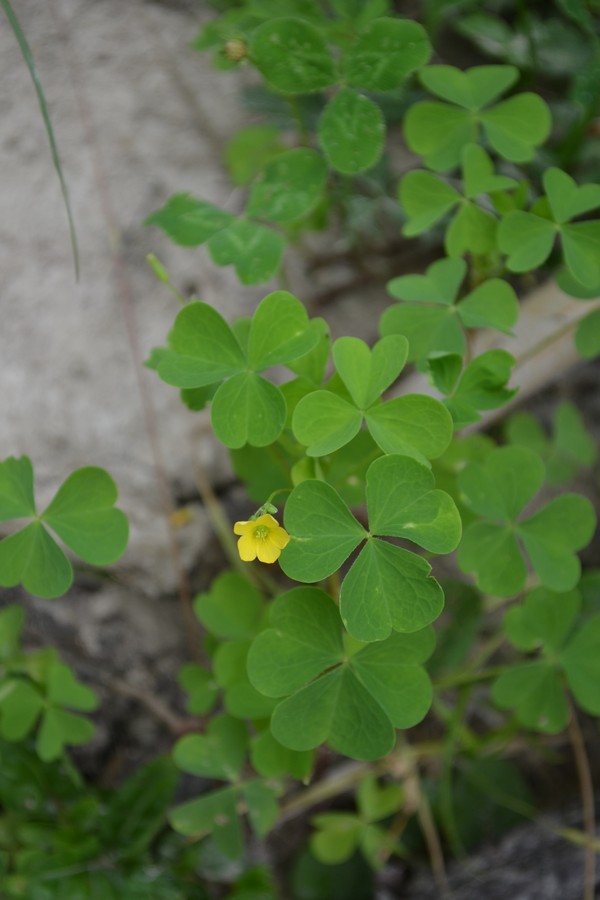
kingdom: Plantae
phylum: Tracheophyta
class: Magnoliopsida
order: Oxalidales
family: Oxalidaceae
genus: Oxalis
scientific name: Oxalis stricta
